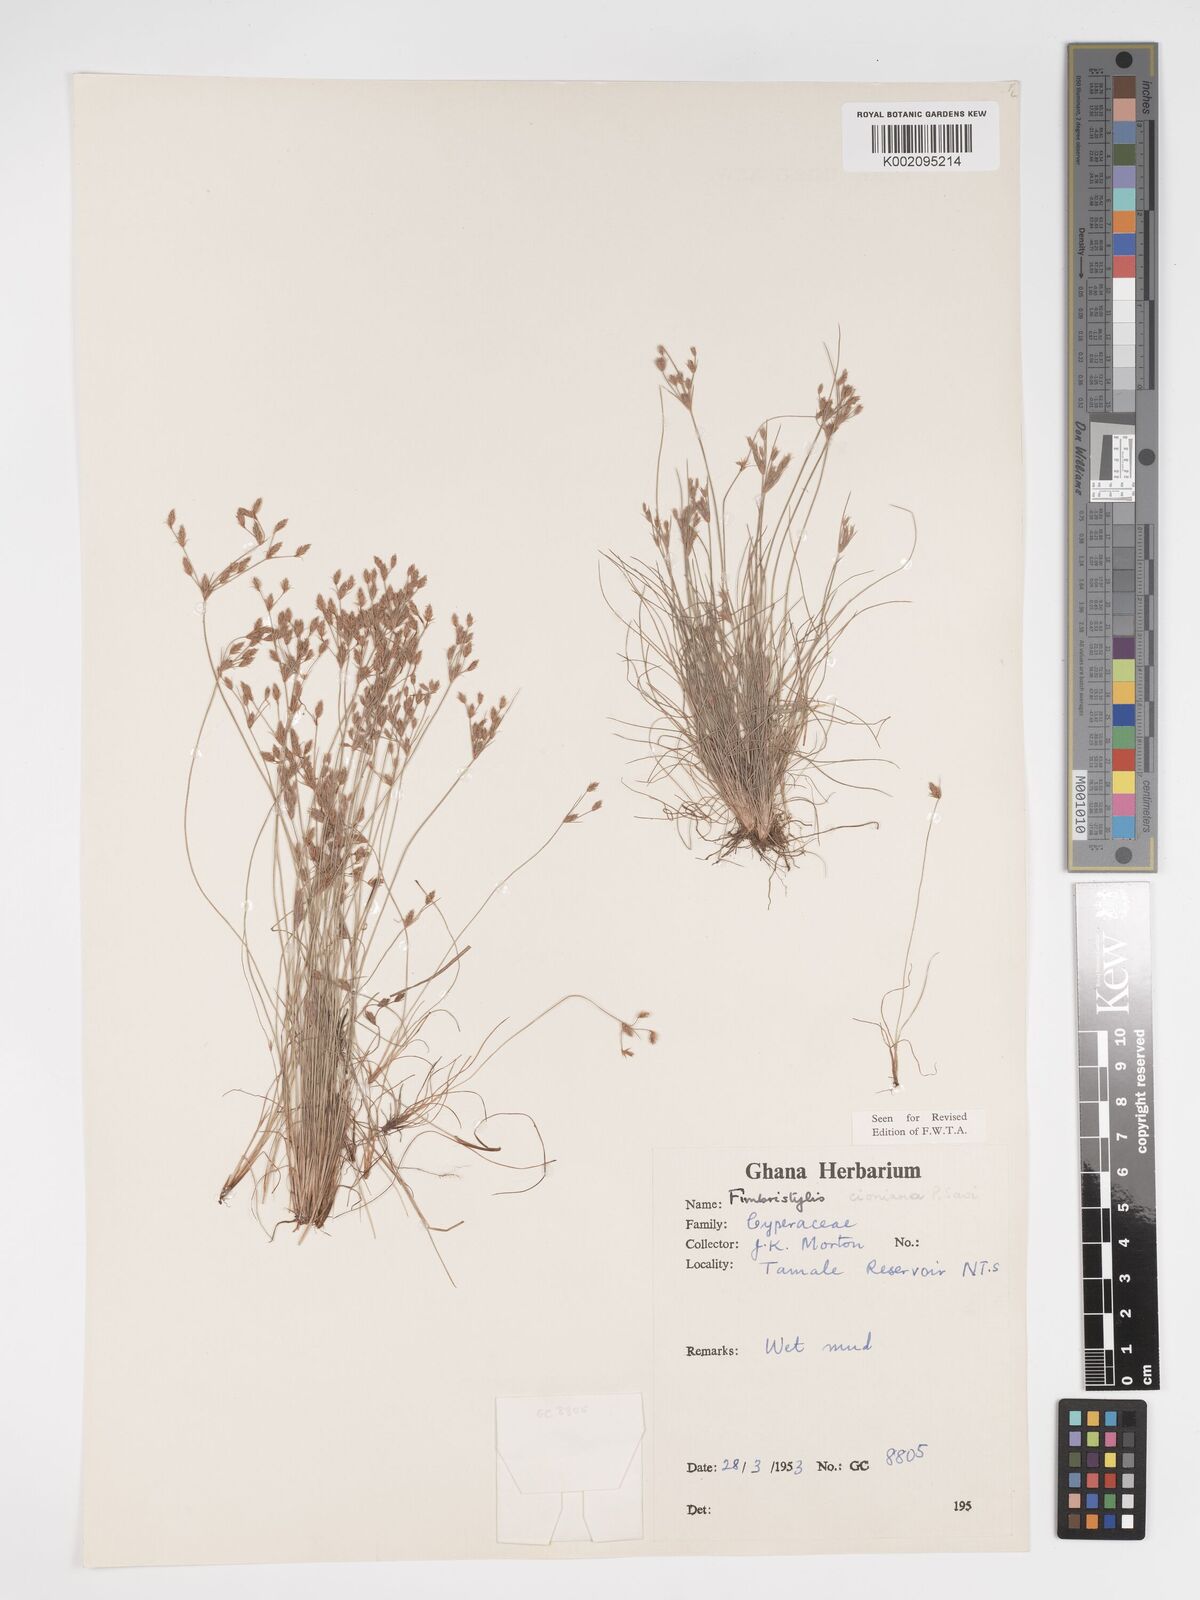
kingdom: Plantae
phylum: Tracheophyta
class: Liliopsida
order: Poales
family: Cyperaceae
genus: Bulbostylis
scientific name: Bulbostylis cioniana
